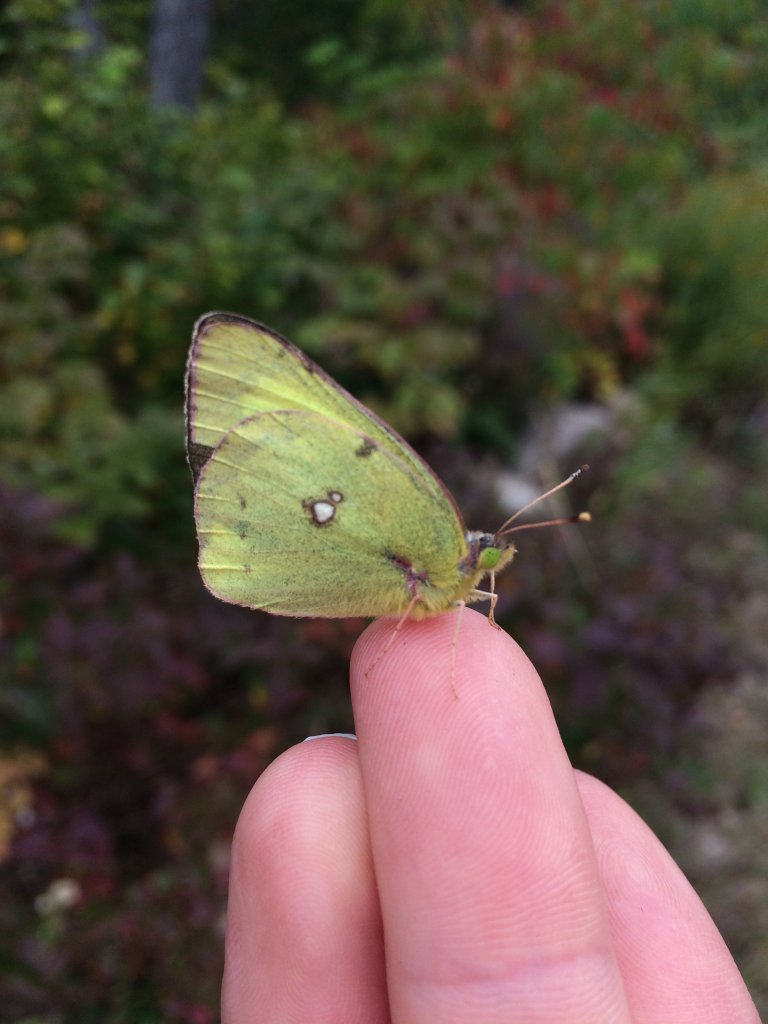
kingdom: Animalia
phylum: Arthropoda
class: Insecta
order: Lepidoptera
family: Pieridae
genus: Colias
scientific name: Colias philodice
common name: Clouded Sulphur
